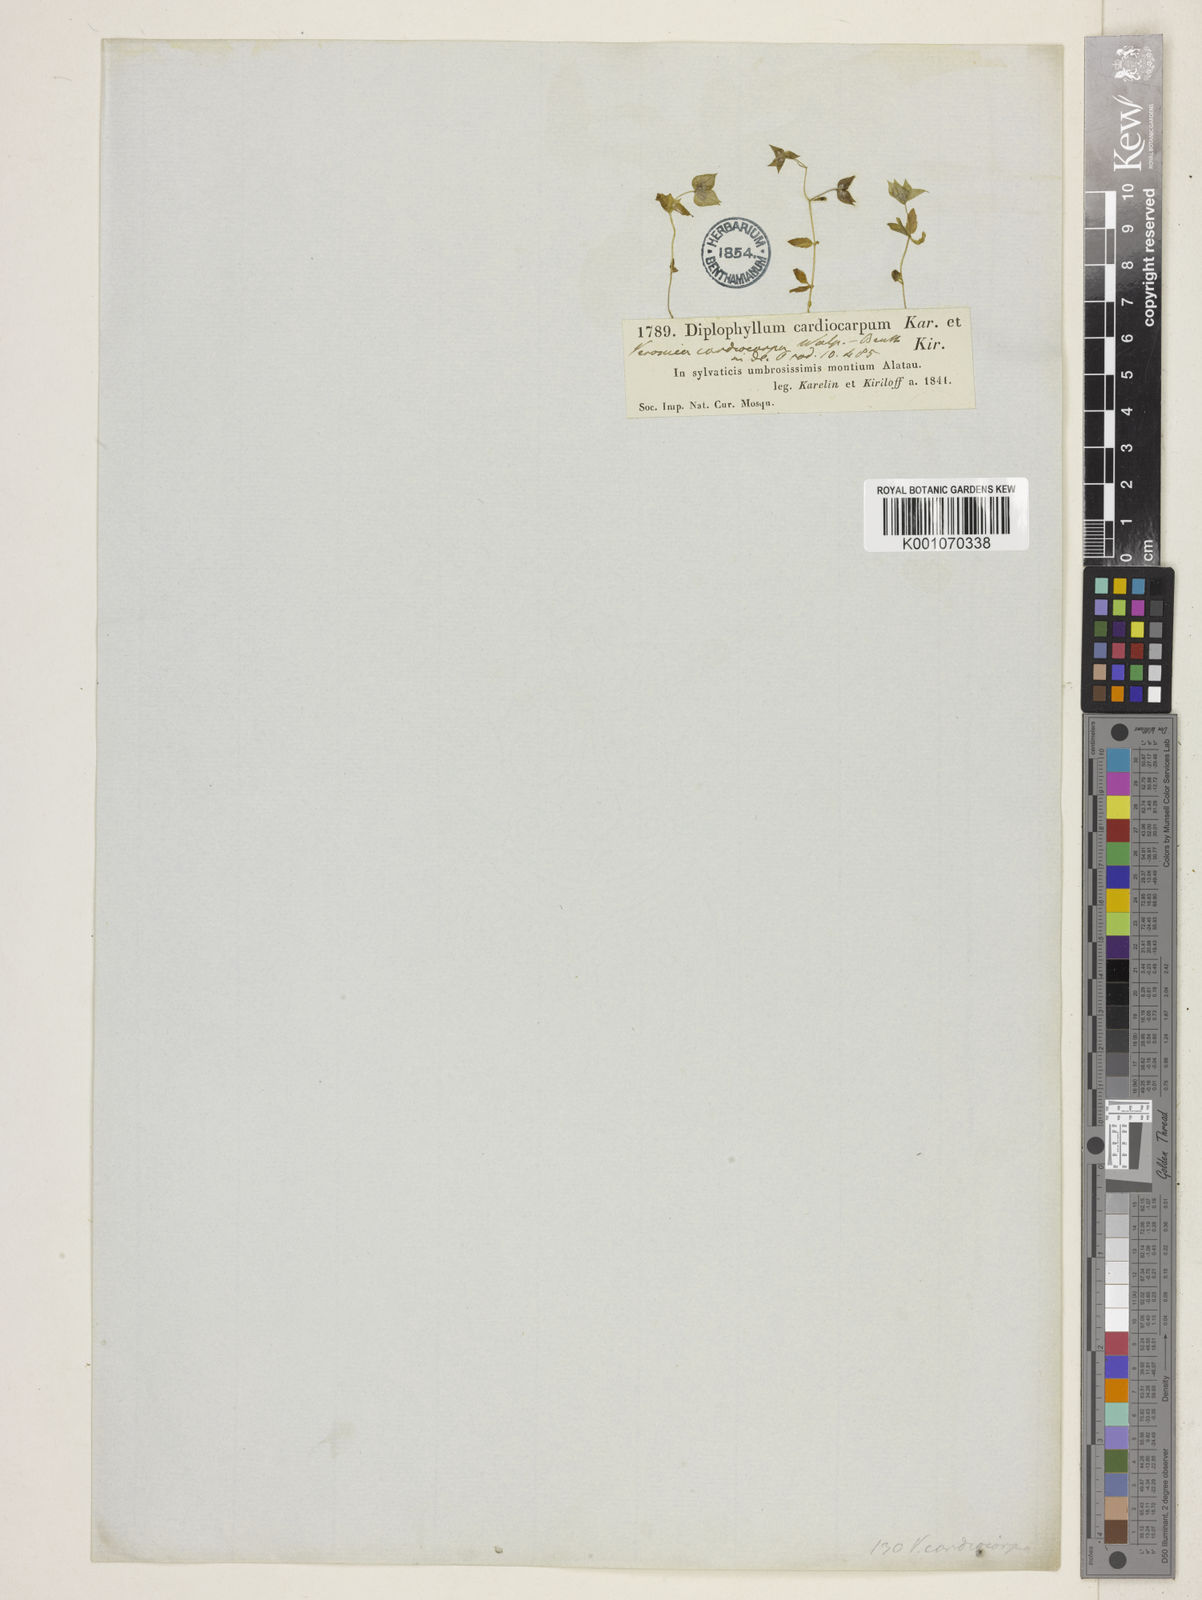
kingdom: Plantae
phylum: Tracheophyta
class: Magnoliopsida
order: Lamiales
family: Plantaginaceae
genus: Veronica
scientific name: Veronica cardiocarpa
